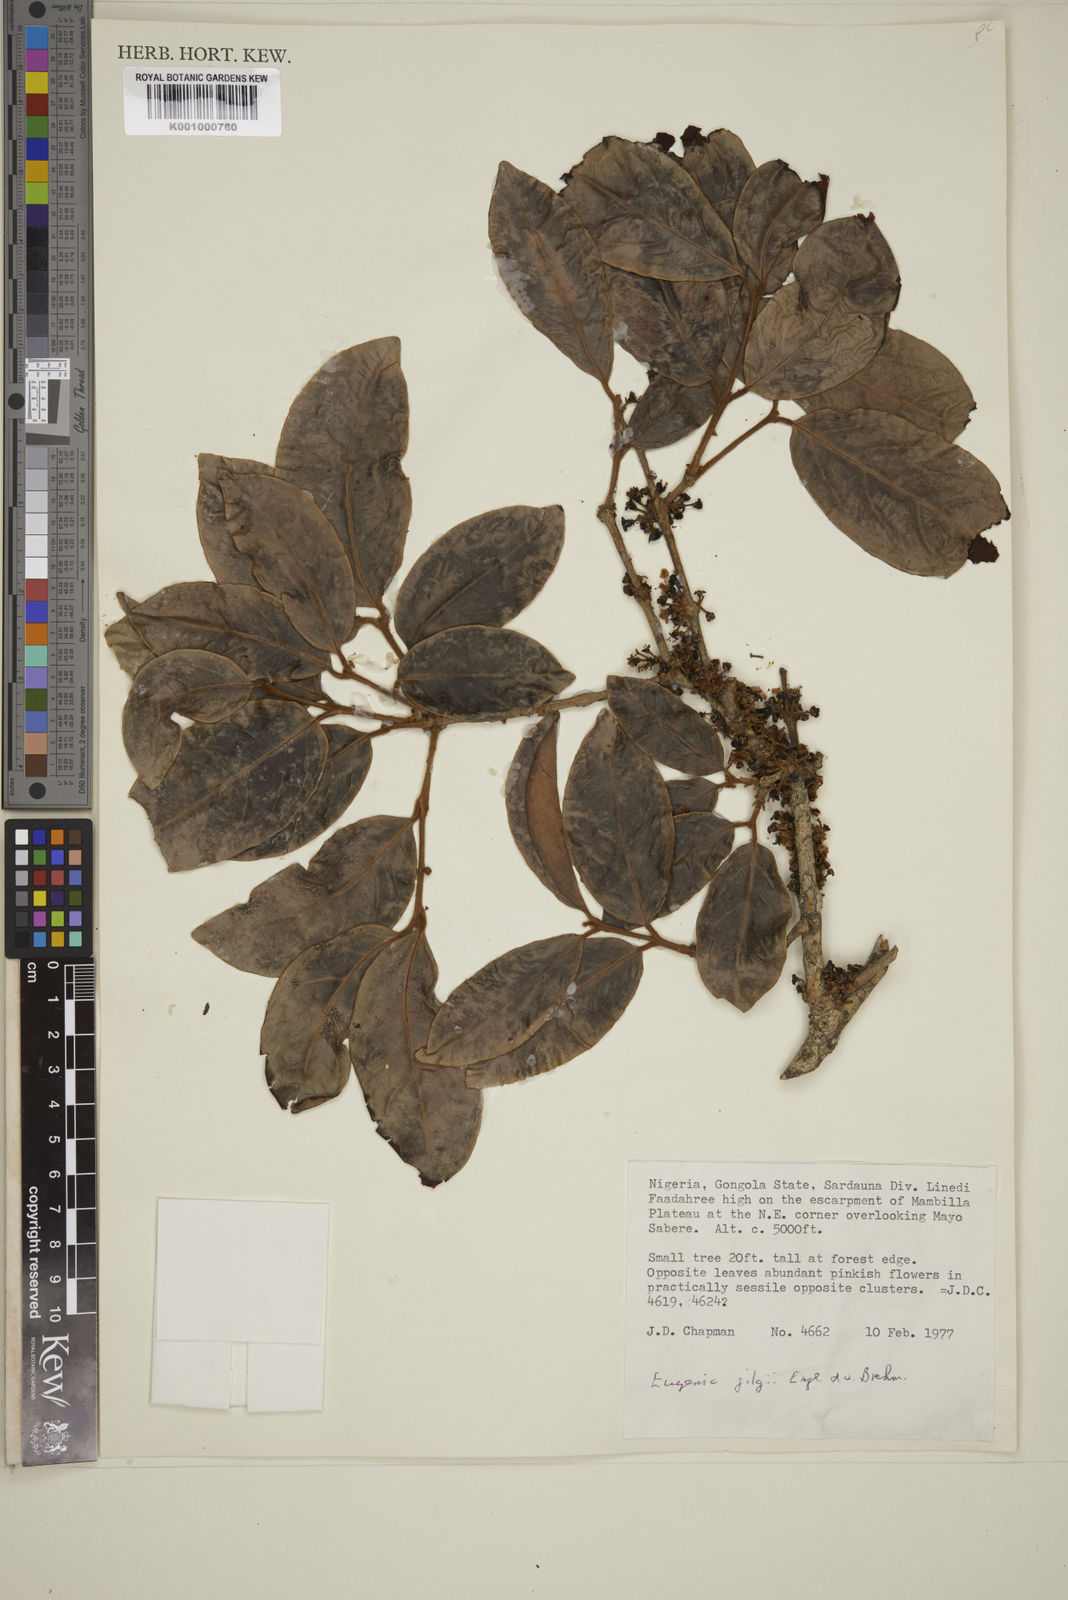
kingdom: Plantae
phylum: Tracheophyta
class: Magnoliopsida
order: Myrtales
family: Myrtaceae
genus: Eugenia
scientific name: Eugenia gilgii
